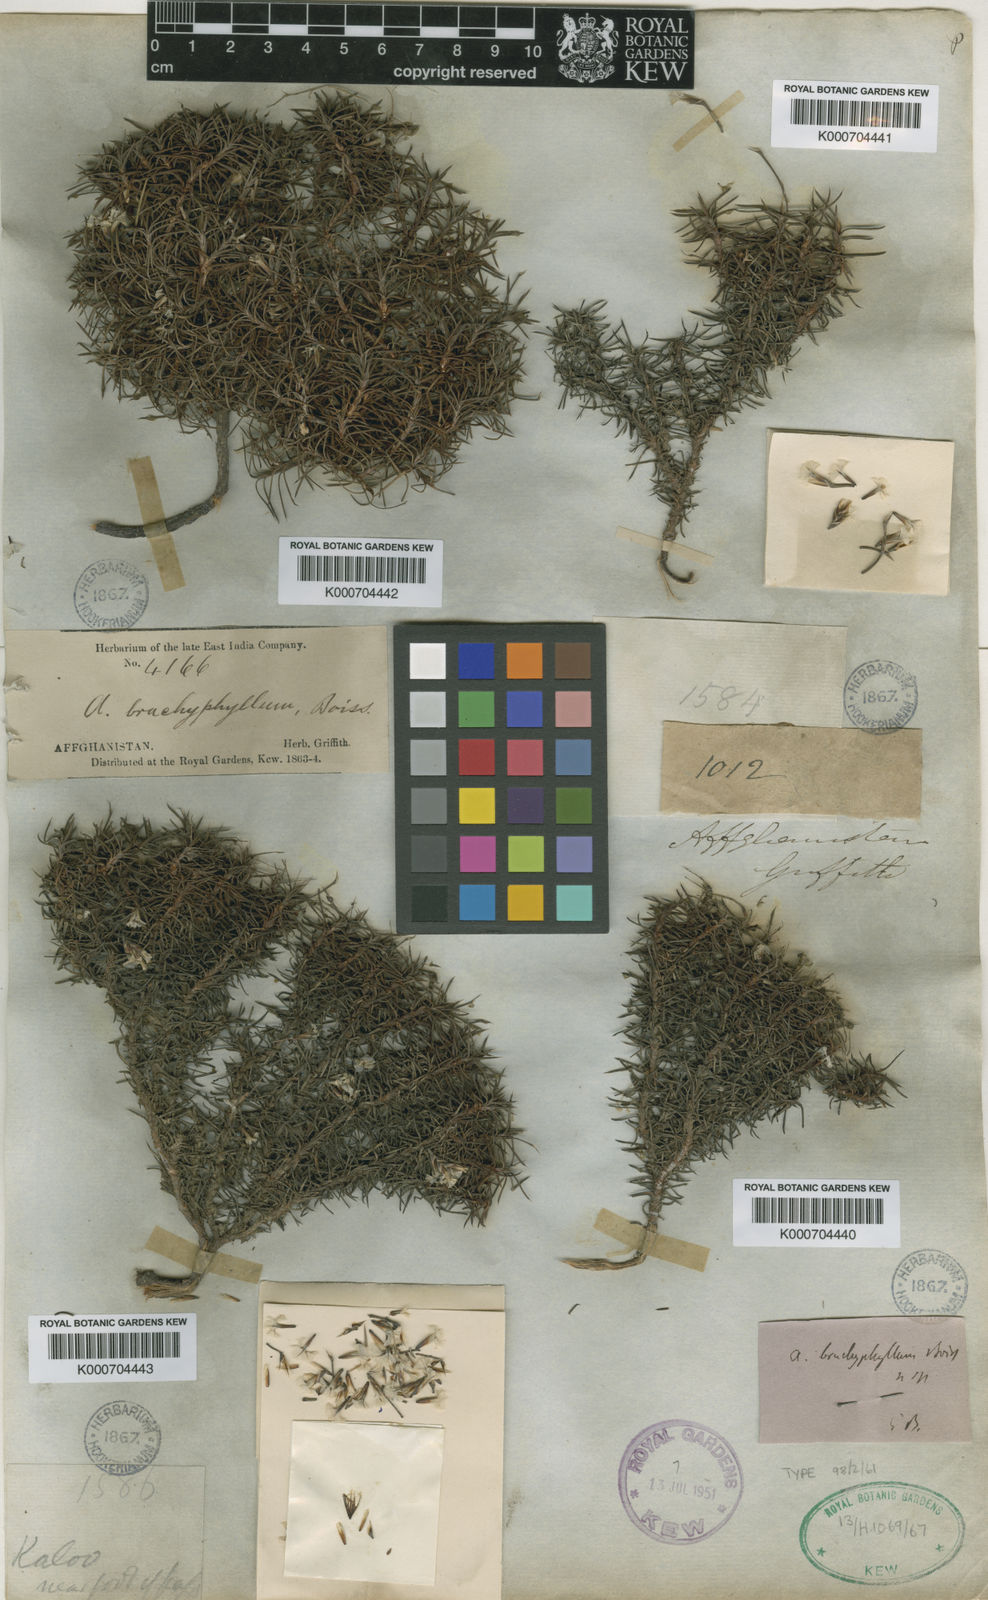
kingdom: Plantae
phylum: Tracheophyta
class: Magnoliopsida
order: Caryophyllales
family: Plumbaginaceae
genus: Acantholimon
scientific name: Acantholimon brachyphyllum
